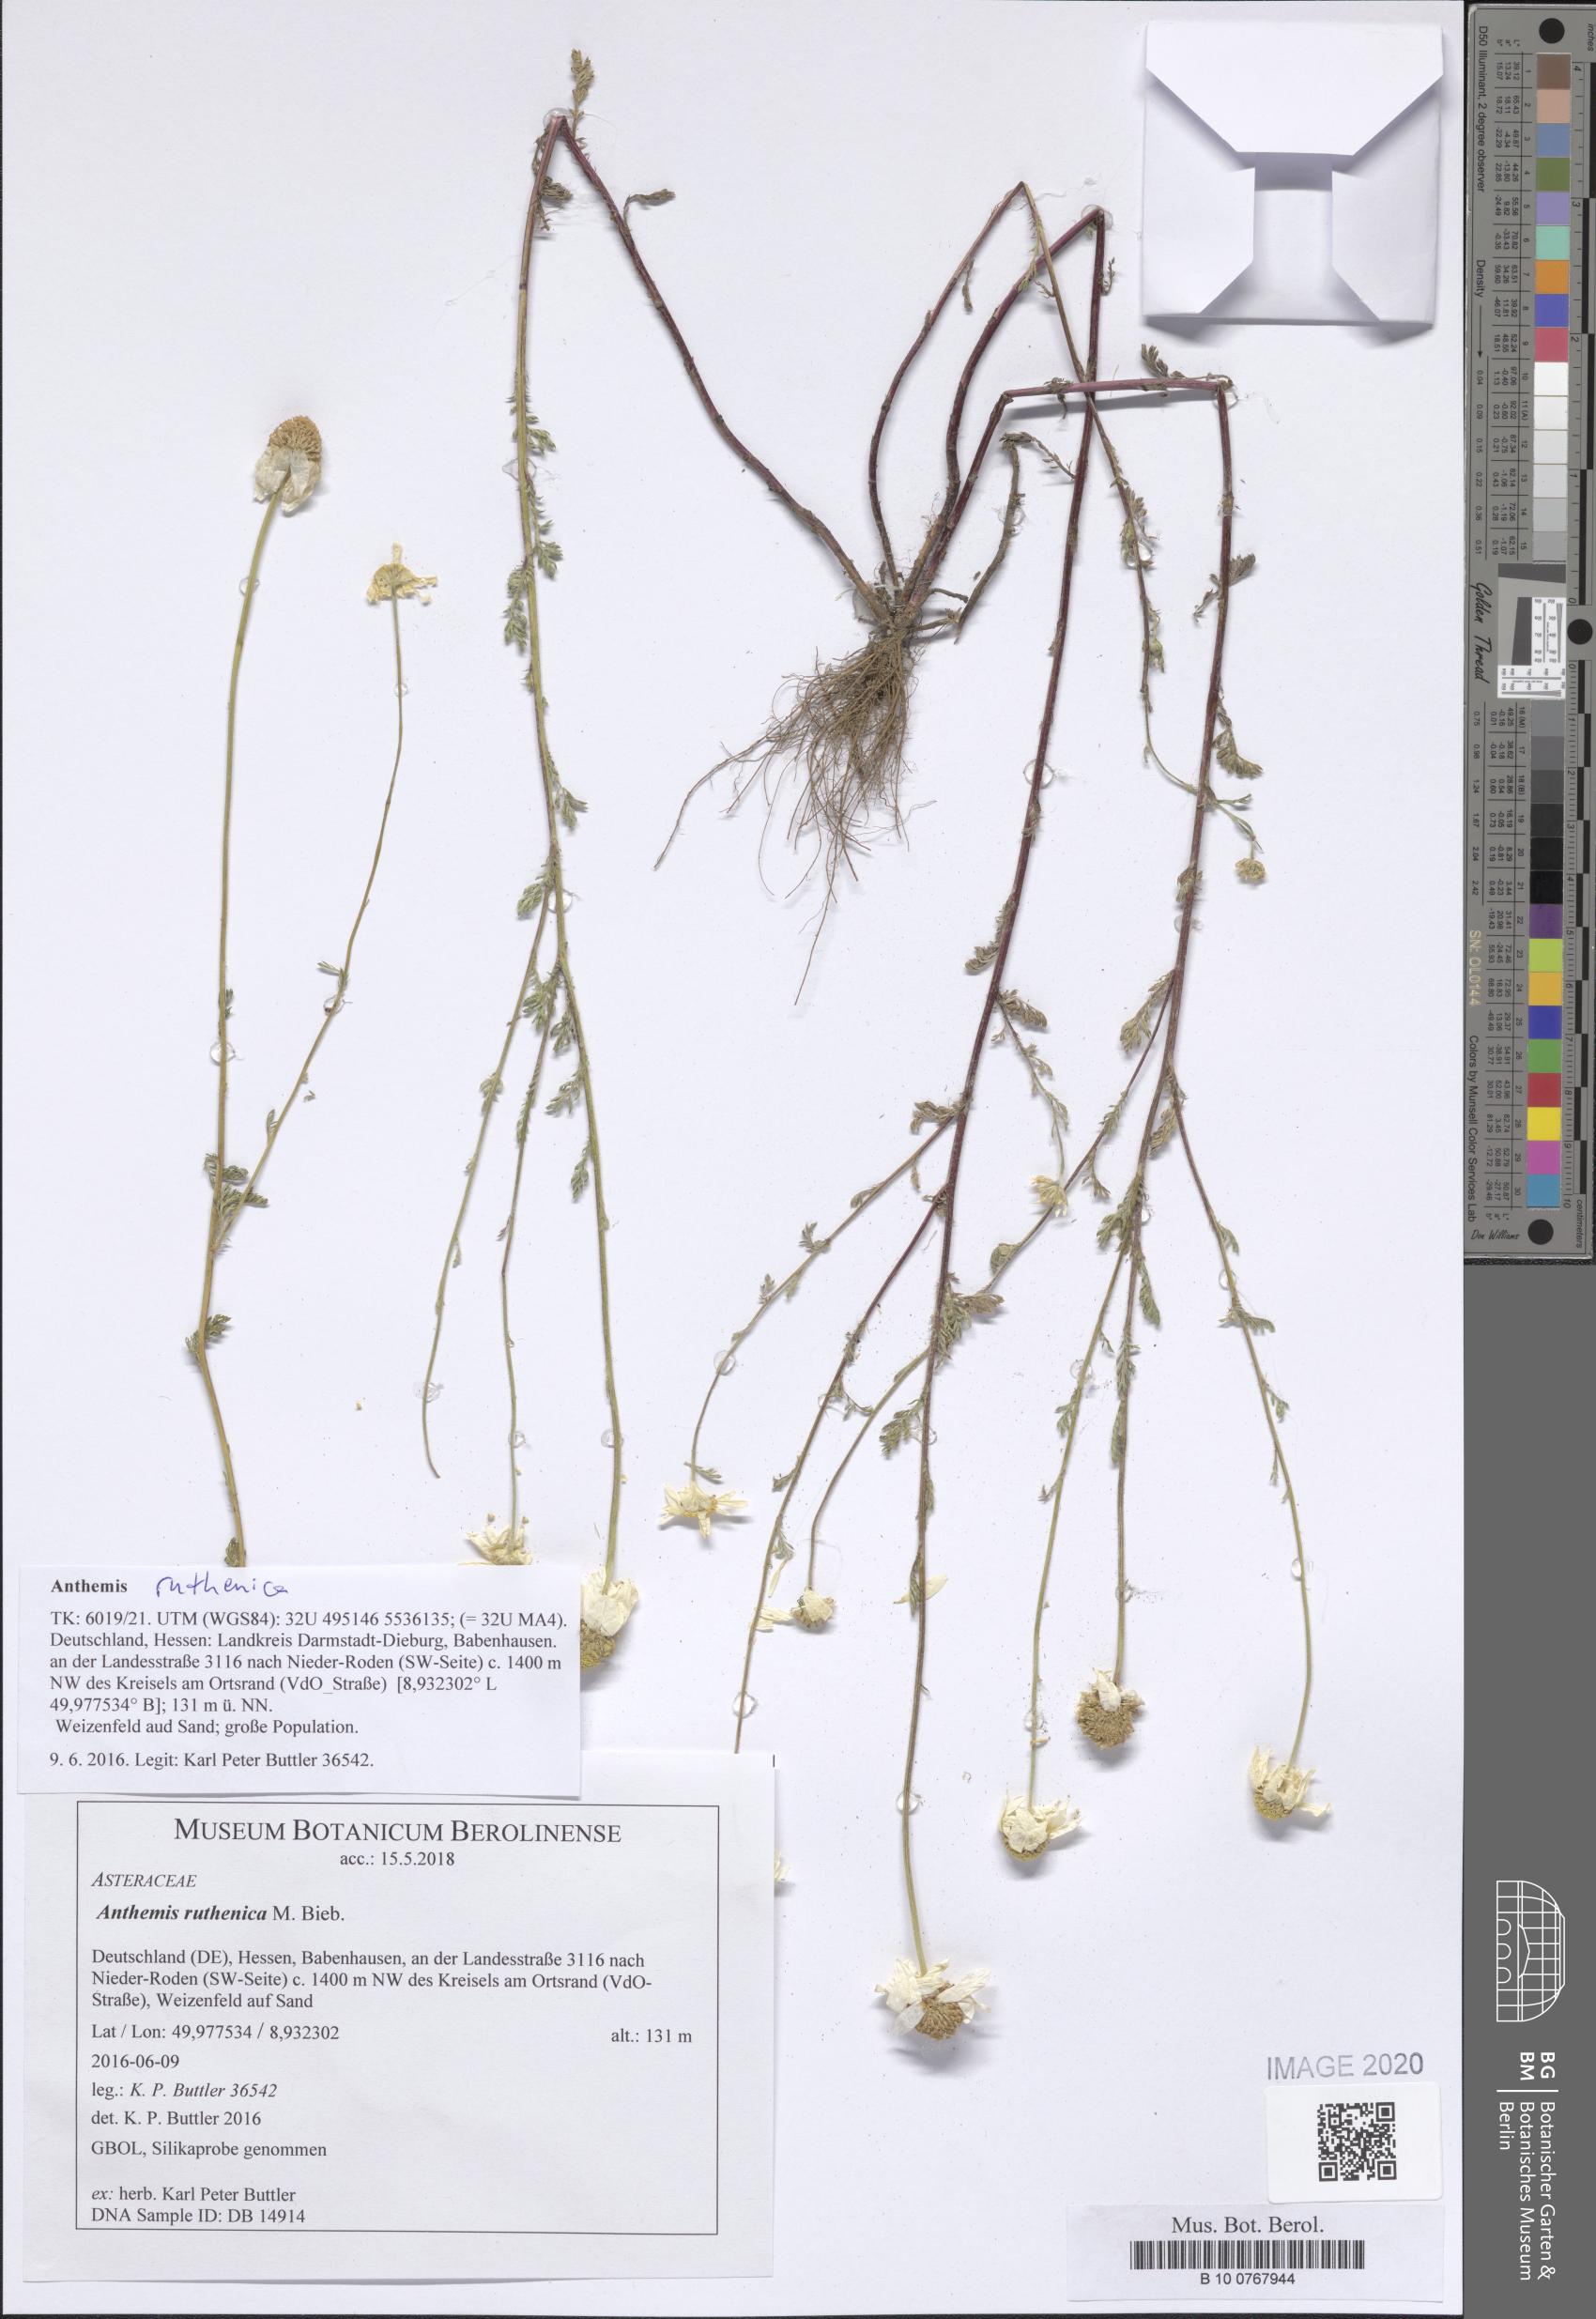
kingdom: Plantae
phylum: Tracheophyta
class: Magnoliopsida
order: Asterales
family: Asteraceae
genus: Anthemis
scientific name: Anthemis ruthenica
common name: Eastern chamomile
